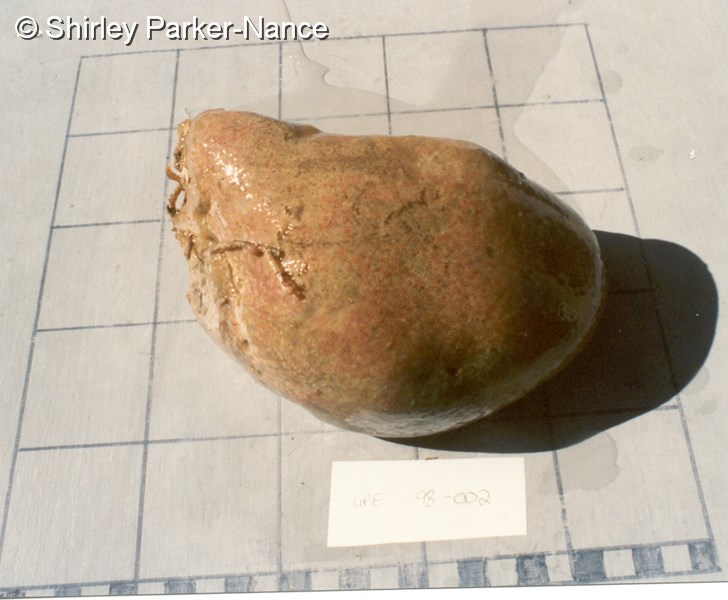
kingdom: Animalia
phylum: Chordata
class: Ascidiacea
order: Aplousobranchia
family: Polyclinidae
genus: Aplidium
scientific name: Aplidium
